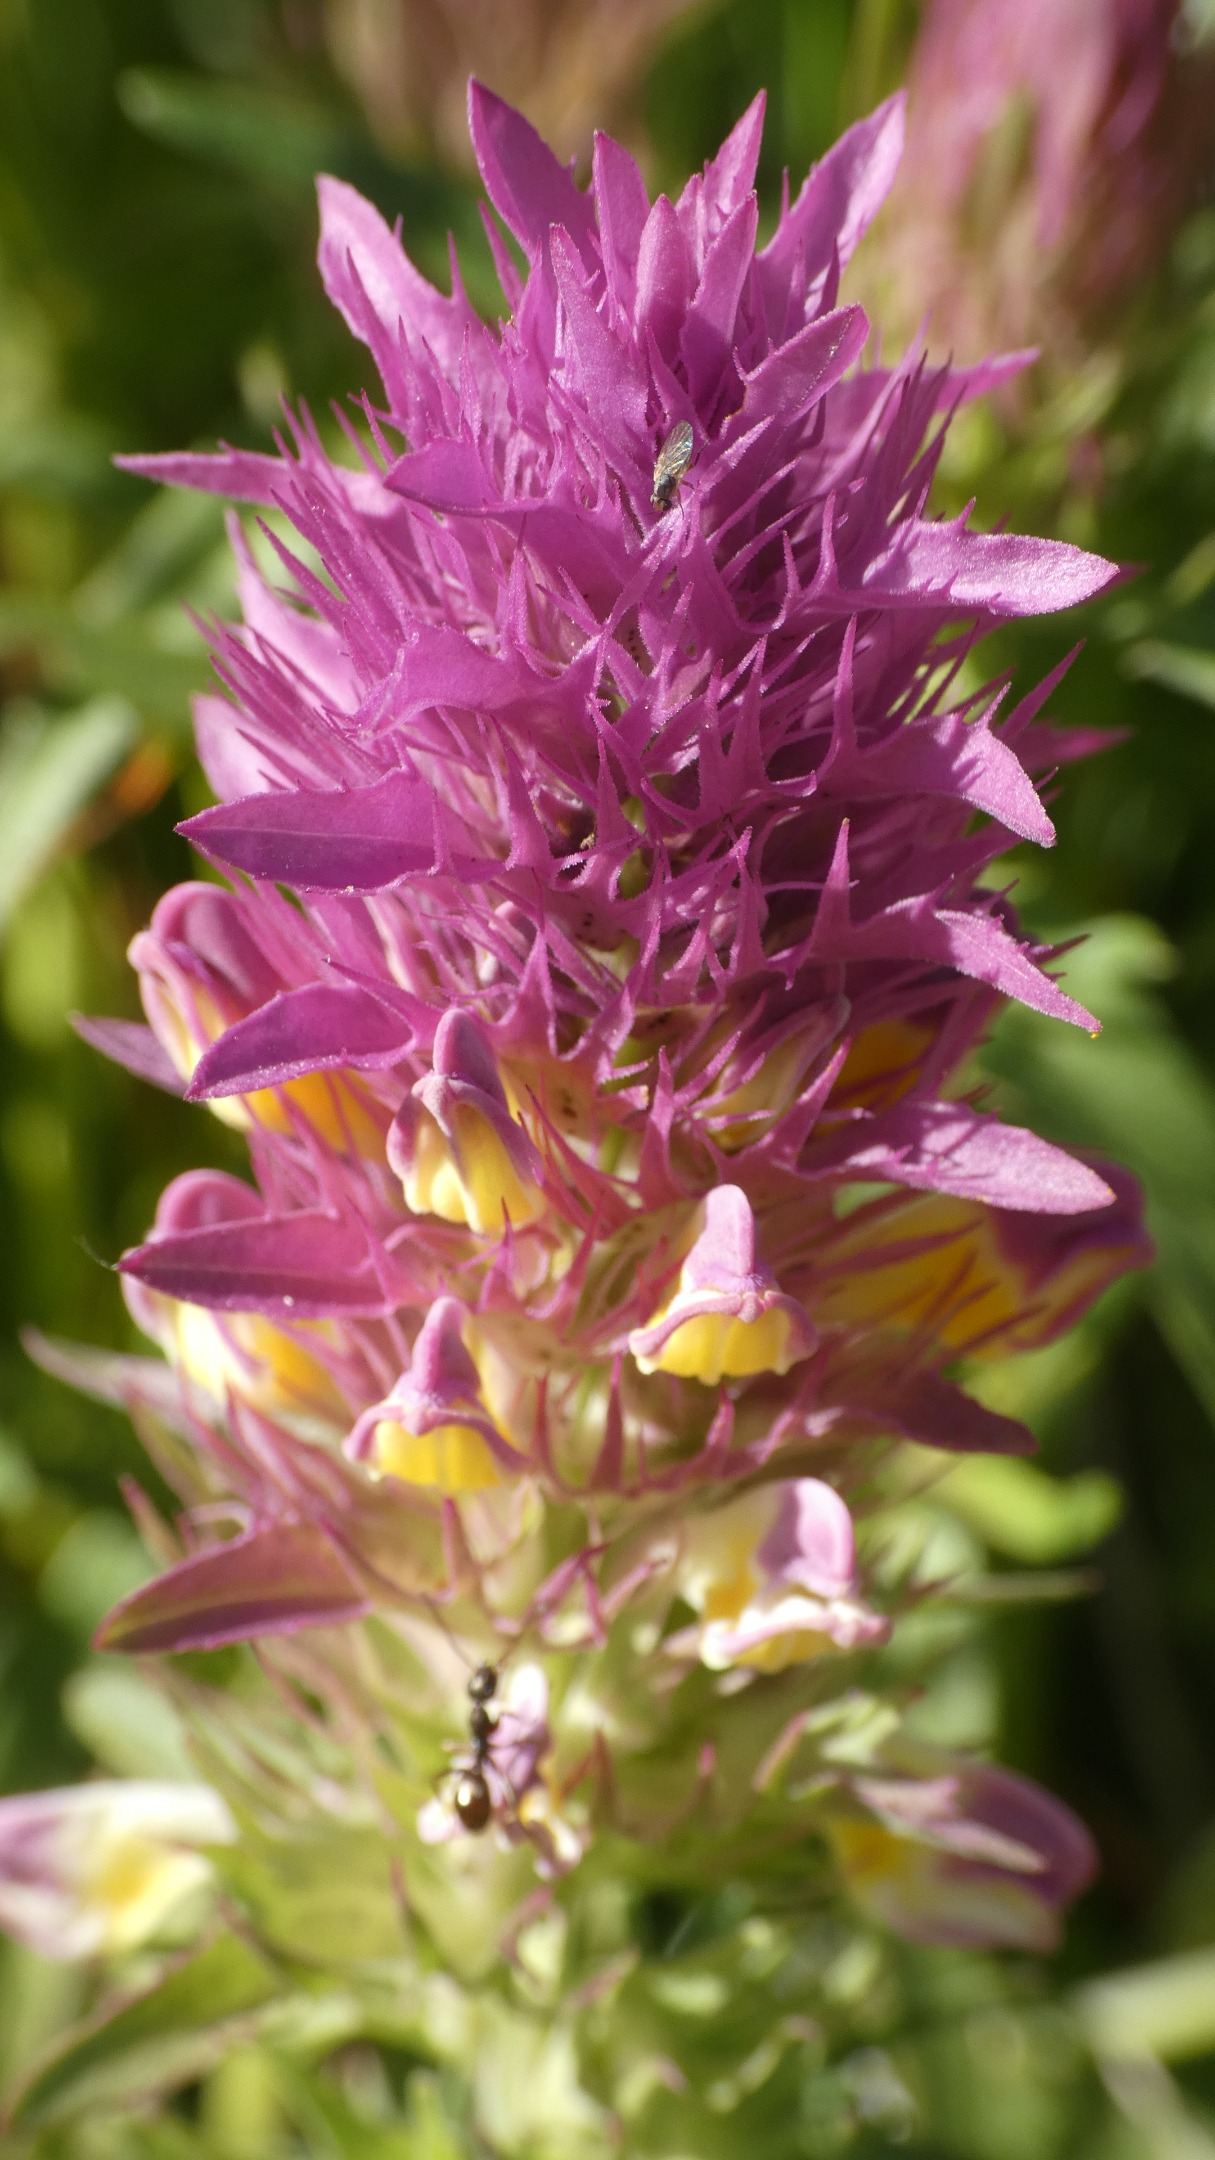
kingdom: Plantae
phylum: Tracheophyta
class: Magnoliopsida
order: Lamiales
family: Orobanchaceae
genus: Melampyrum
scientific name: Melampyrum arvense
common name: Ager-kohvede
